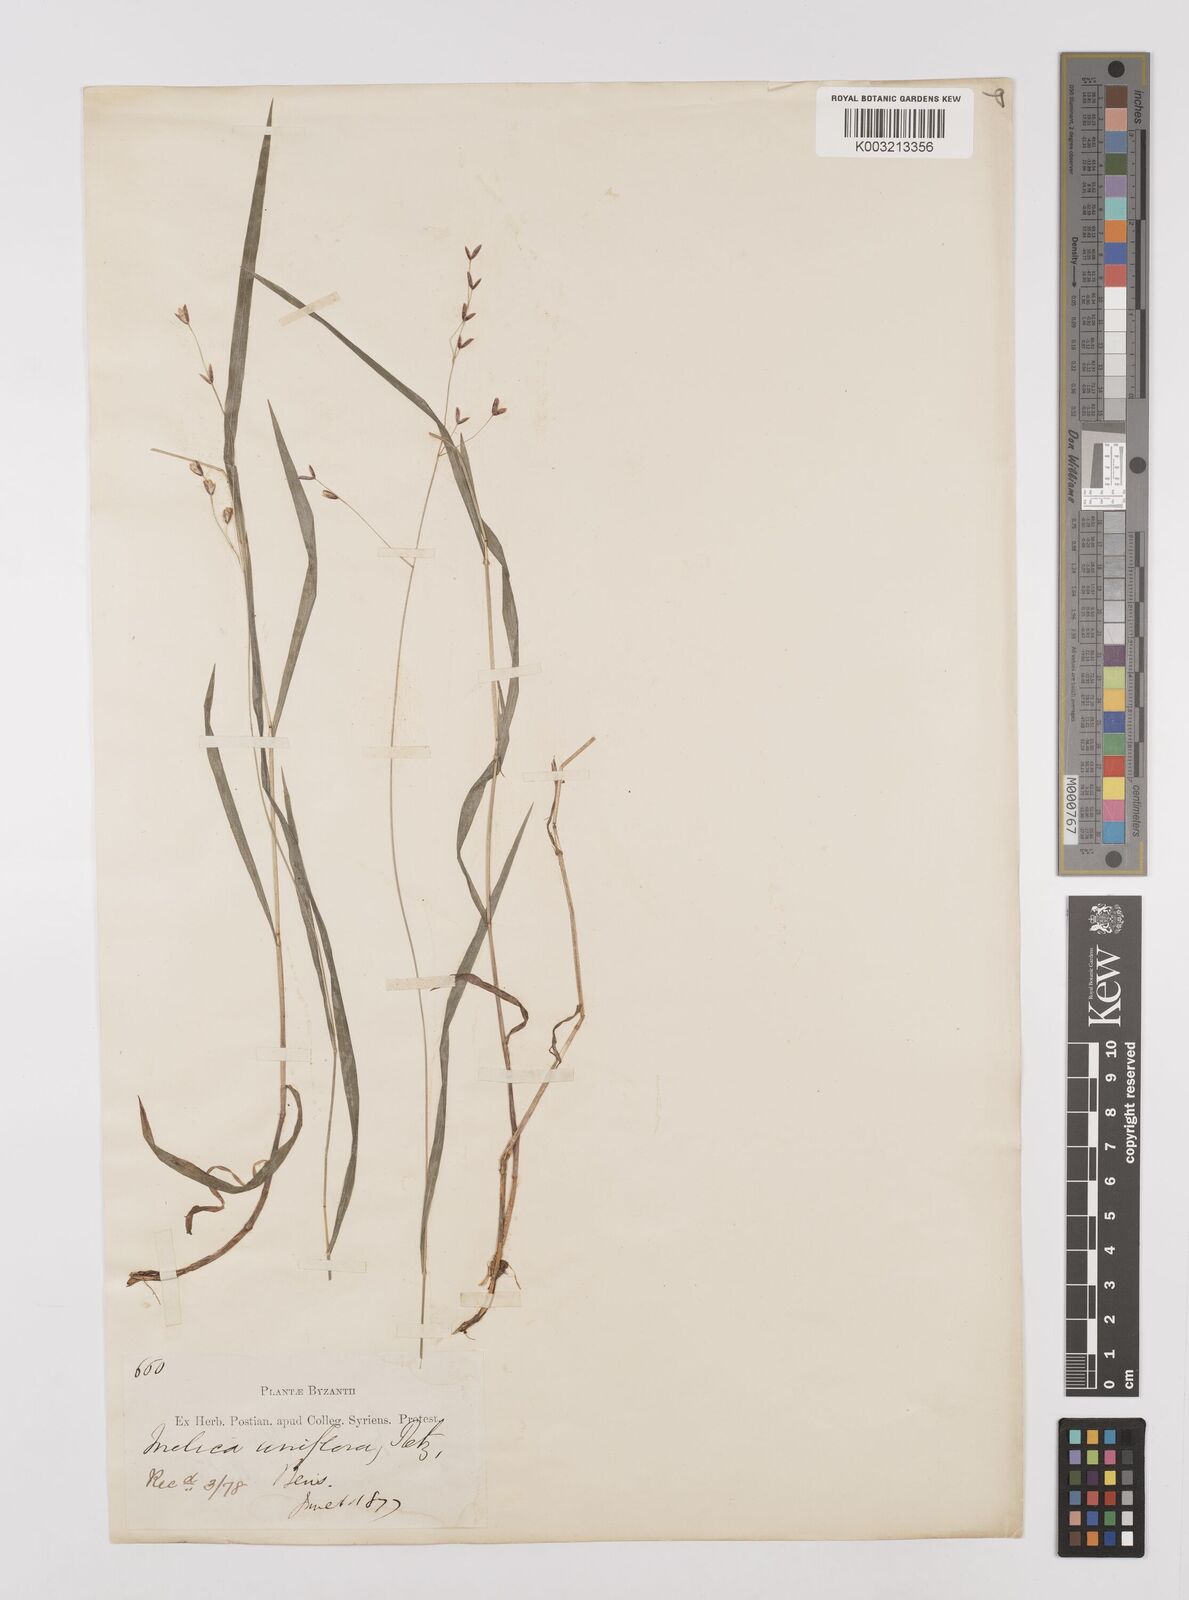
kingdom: Plantae
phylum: Tracheophyta
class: Liliopsida
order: Poales
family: Poaceae
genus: Melica
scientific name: Melica uniflora
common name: Wood melick
